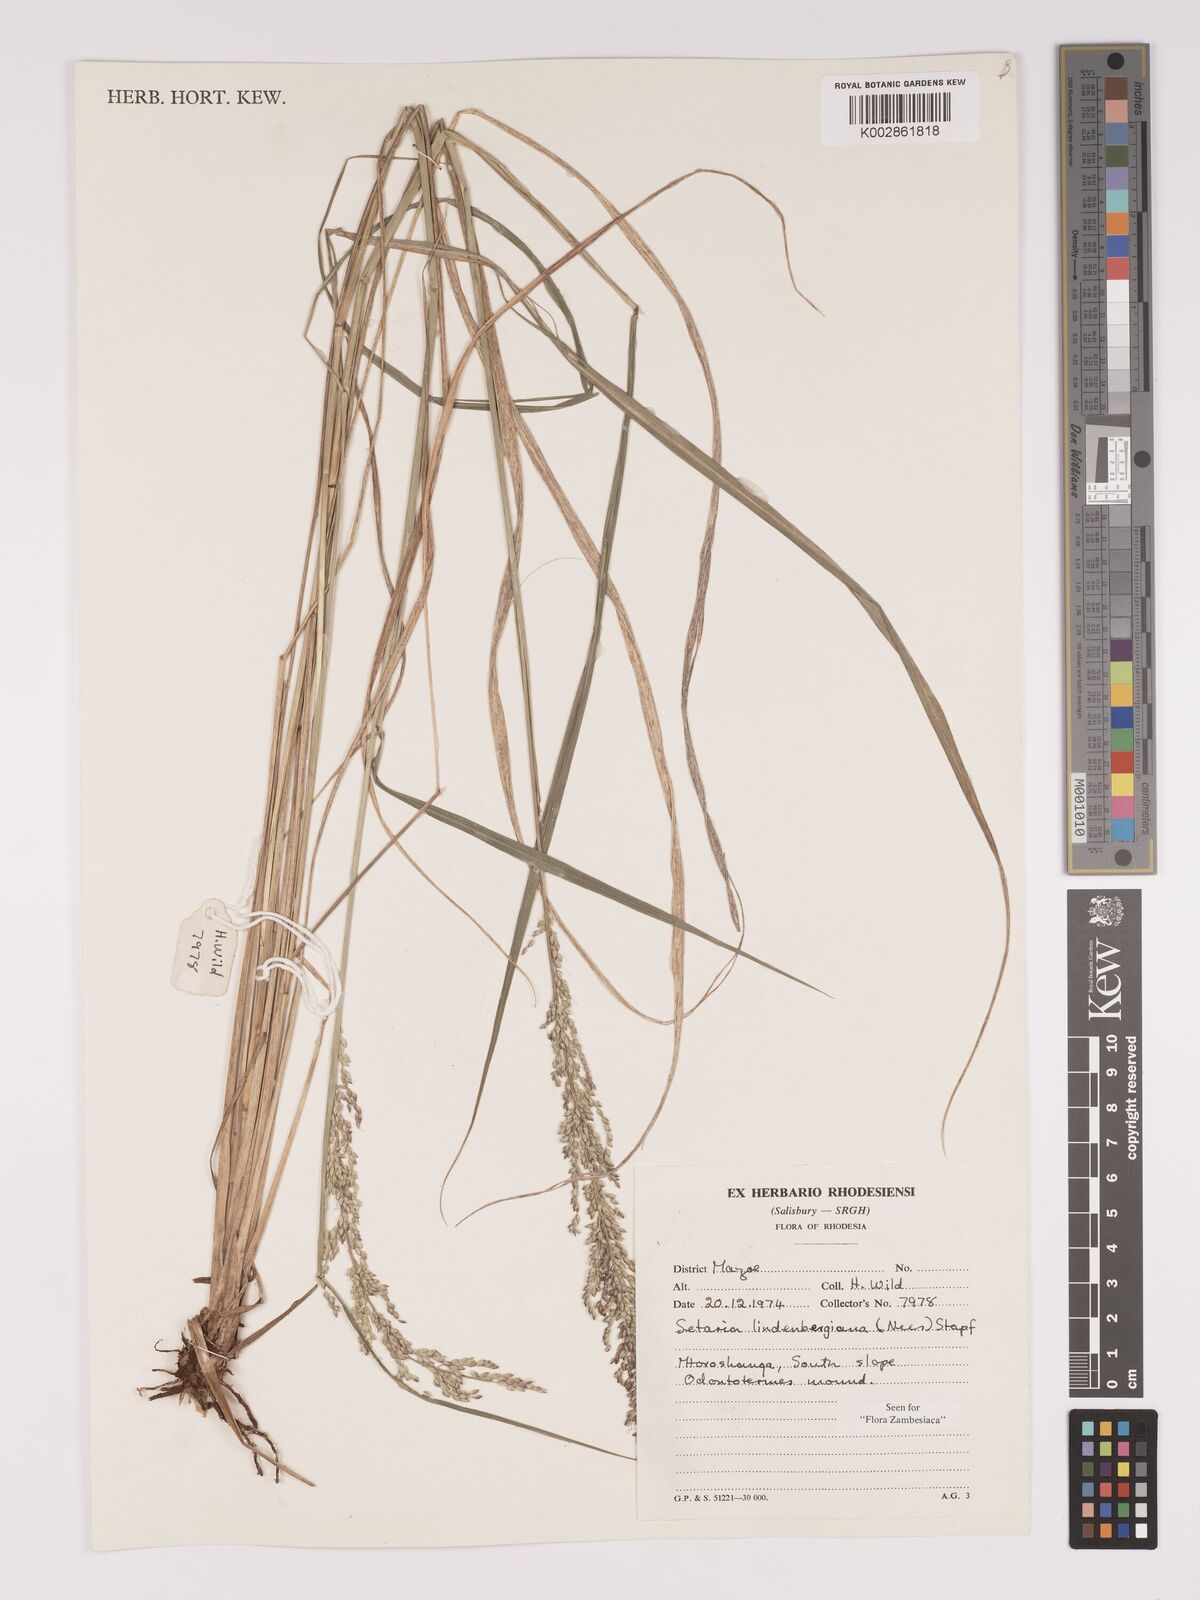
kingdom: Plantae
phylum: Tracheophyta
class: Liliopsida
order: Poales
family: Poaceae
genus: Setaria
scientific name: Setaria lindenbergiana
